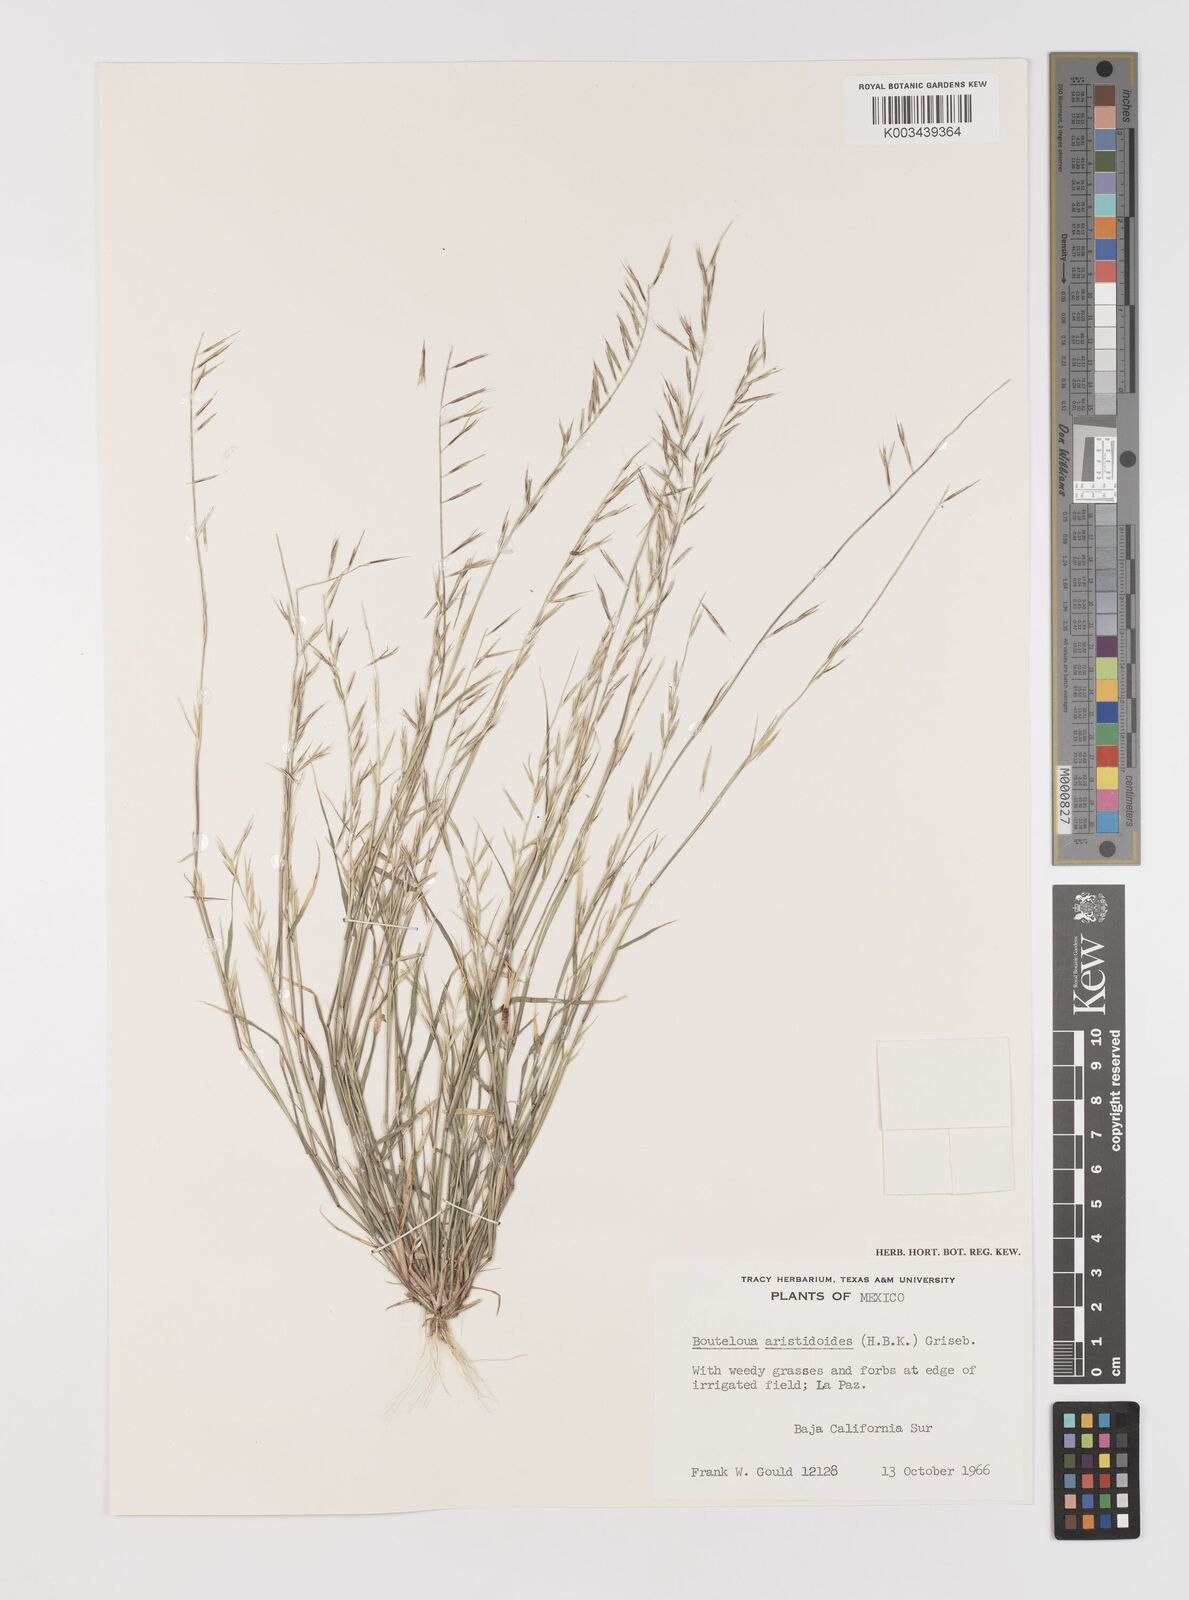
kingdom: Plantae
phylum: Tracheophyta
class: Liliopsida
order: Poales
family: Poaceae
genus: Bouteloua
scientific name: Bouteloua aristidoides
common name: Needle grama
